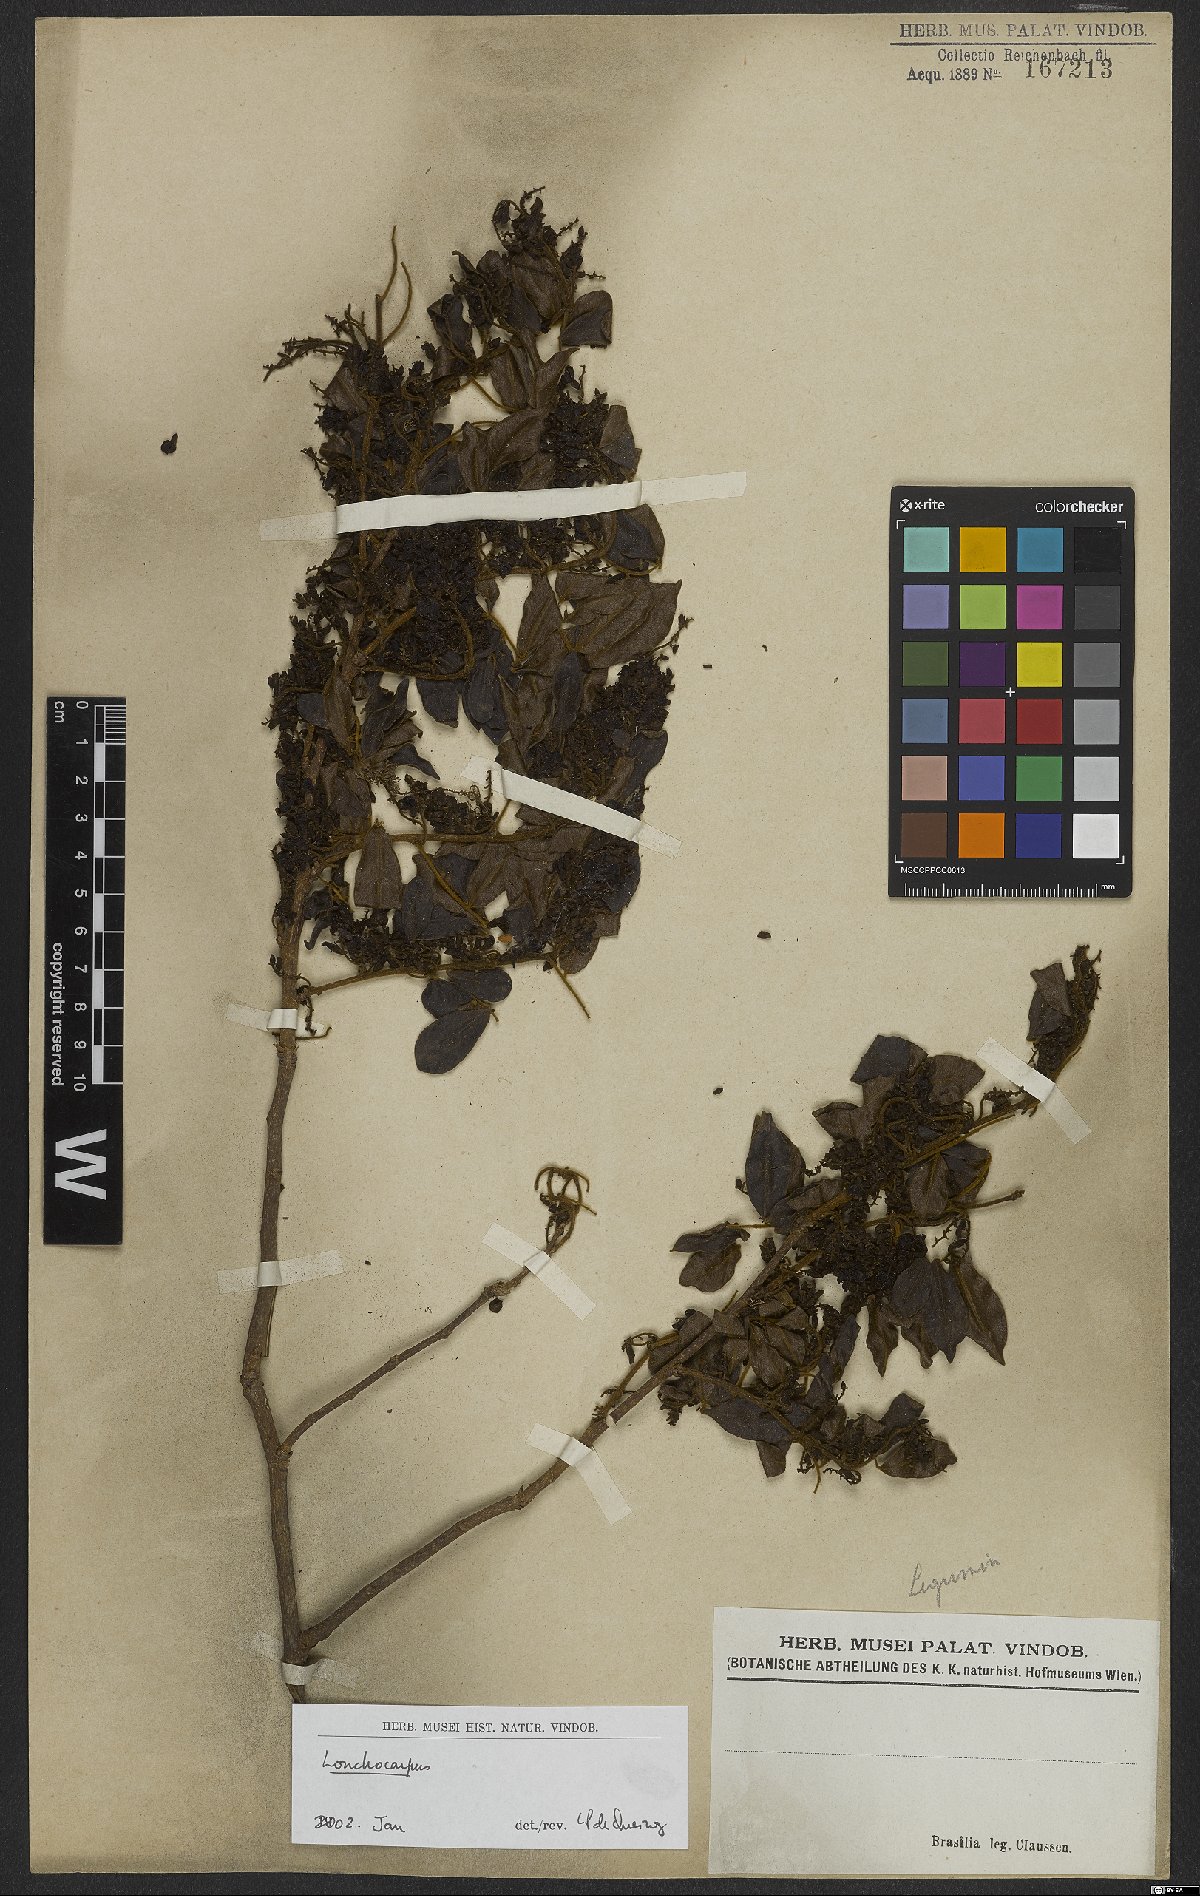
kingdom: Plantae
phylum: Tracheophyta
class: Magnoliopsida
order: Fabales
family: Fabaceae
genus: Lonchocarpus
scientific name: Lonchocarpus
